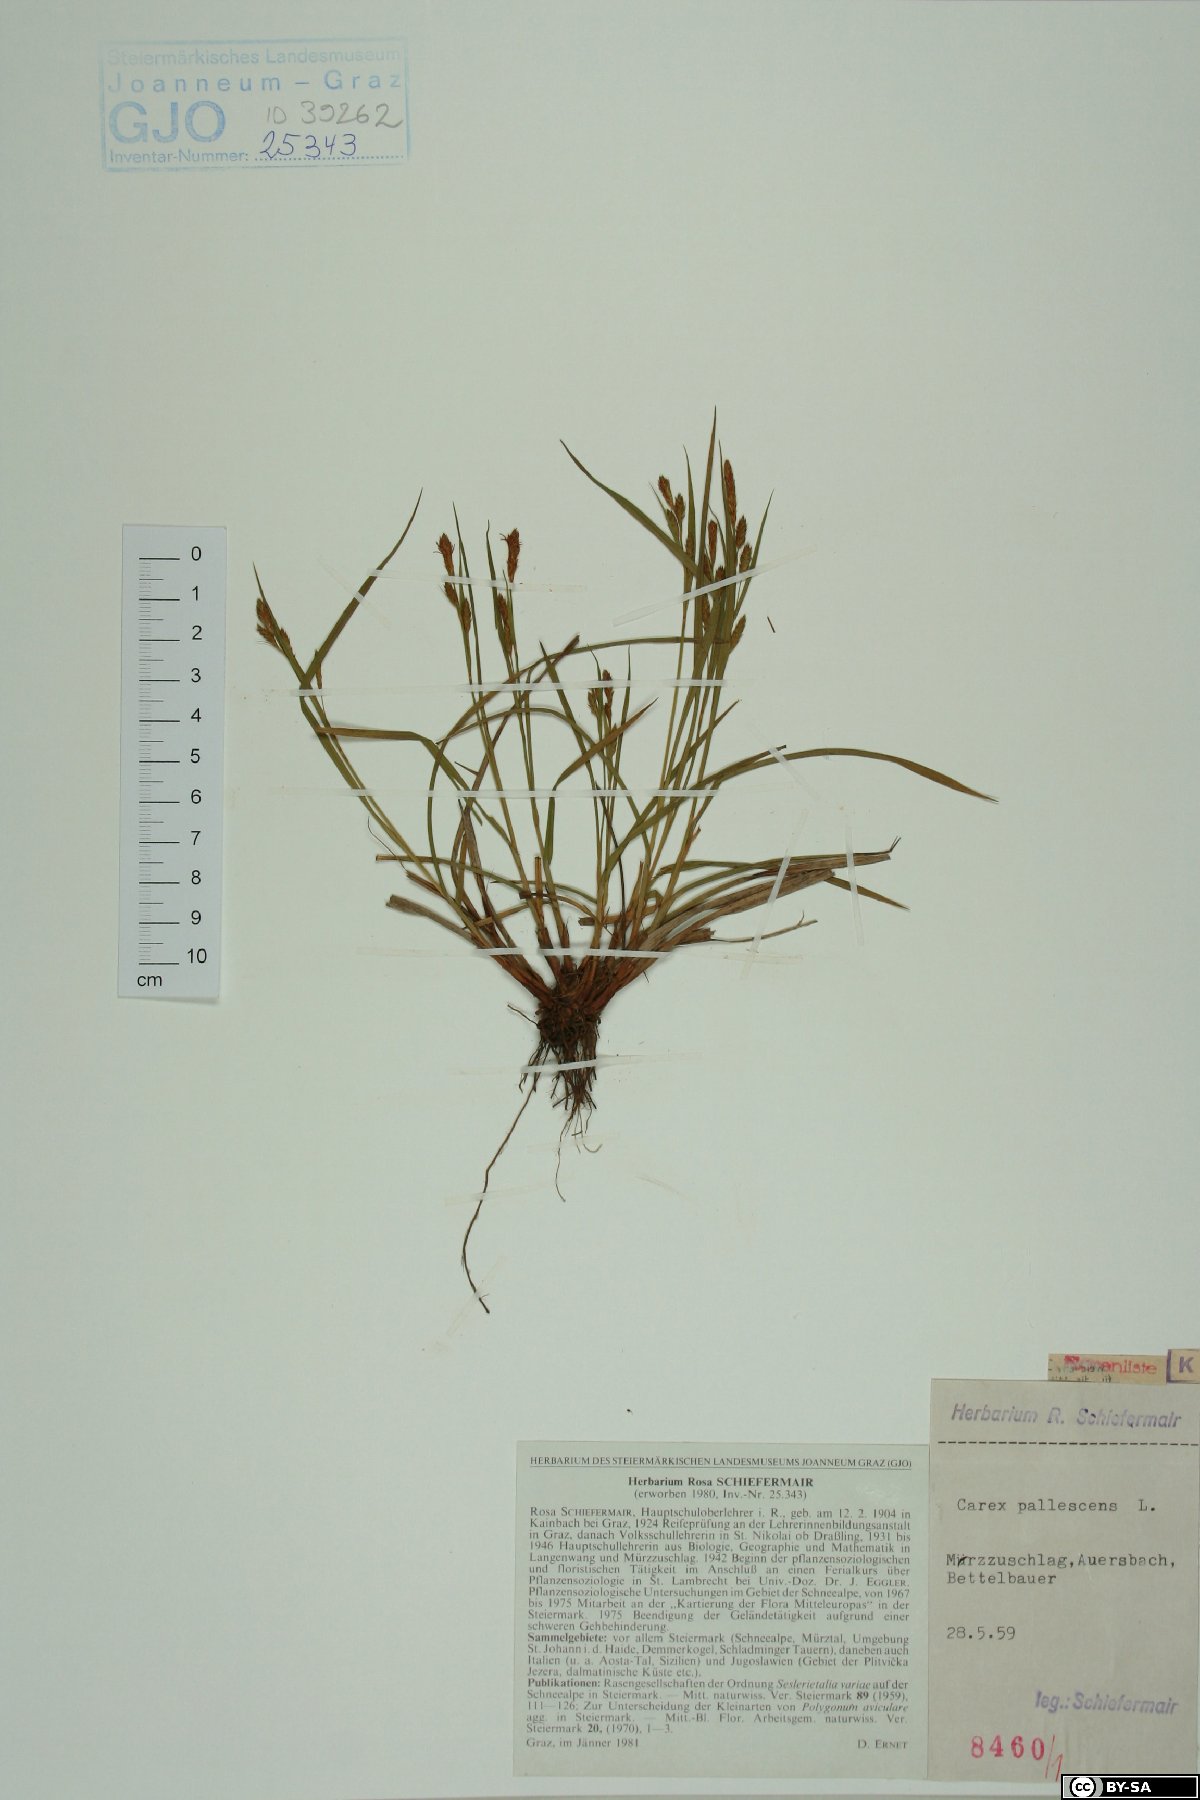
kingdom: Plantae
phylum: Tracheophyta
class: Liliopsida
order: Poales
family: Cyperaceae
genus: Carex
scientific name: Carex pallescens
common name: Pale sedge
